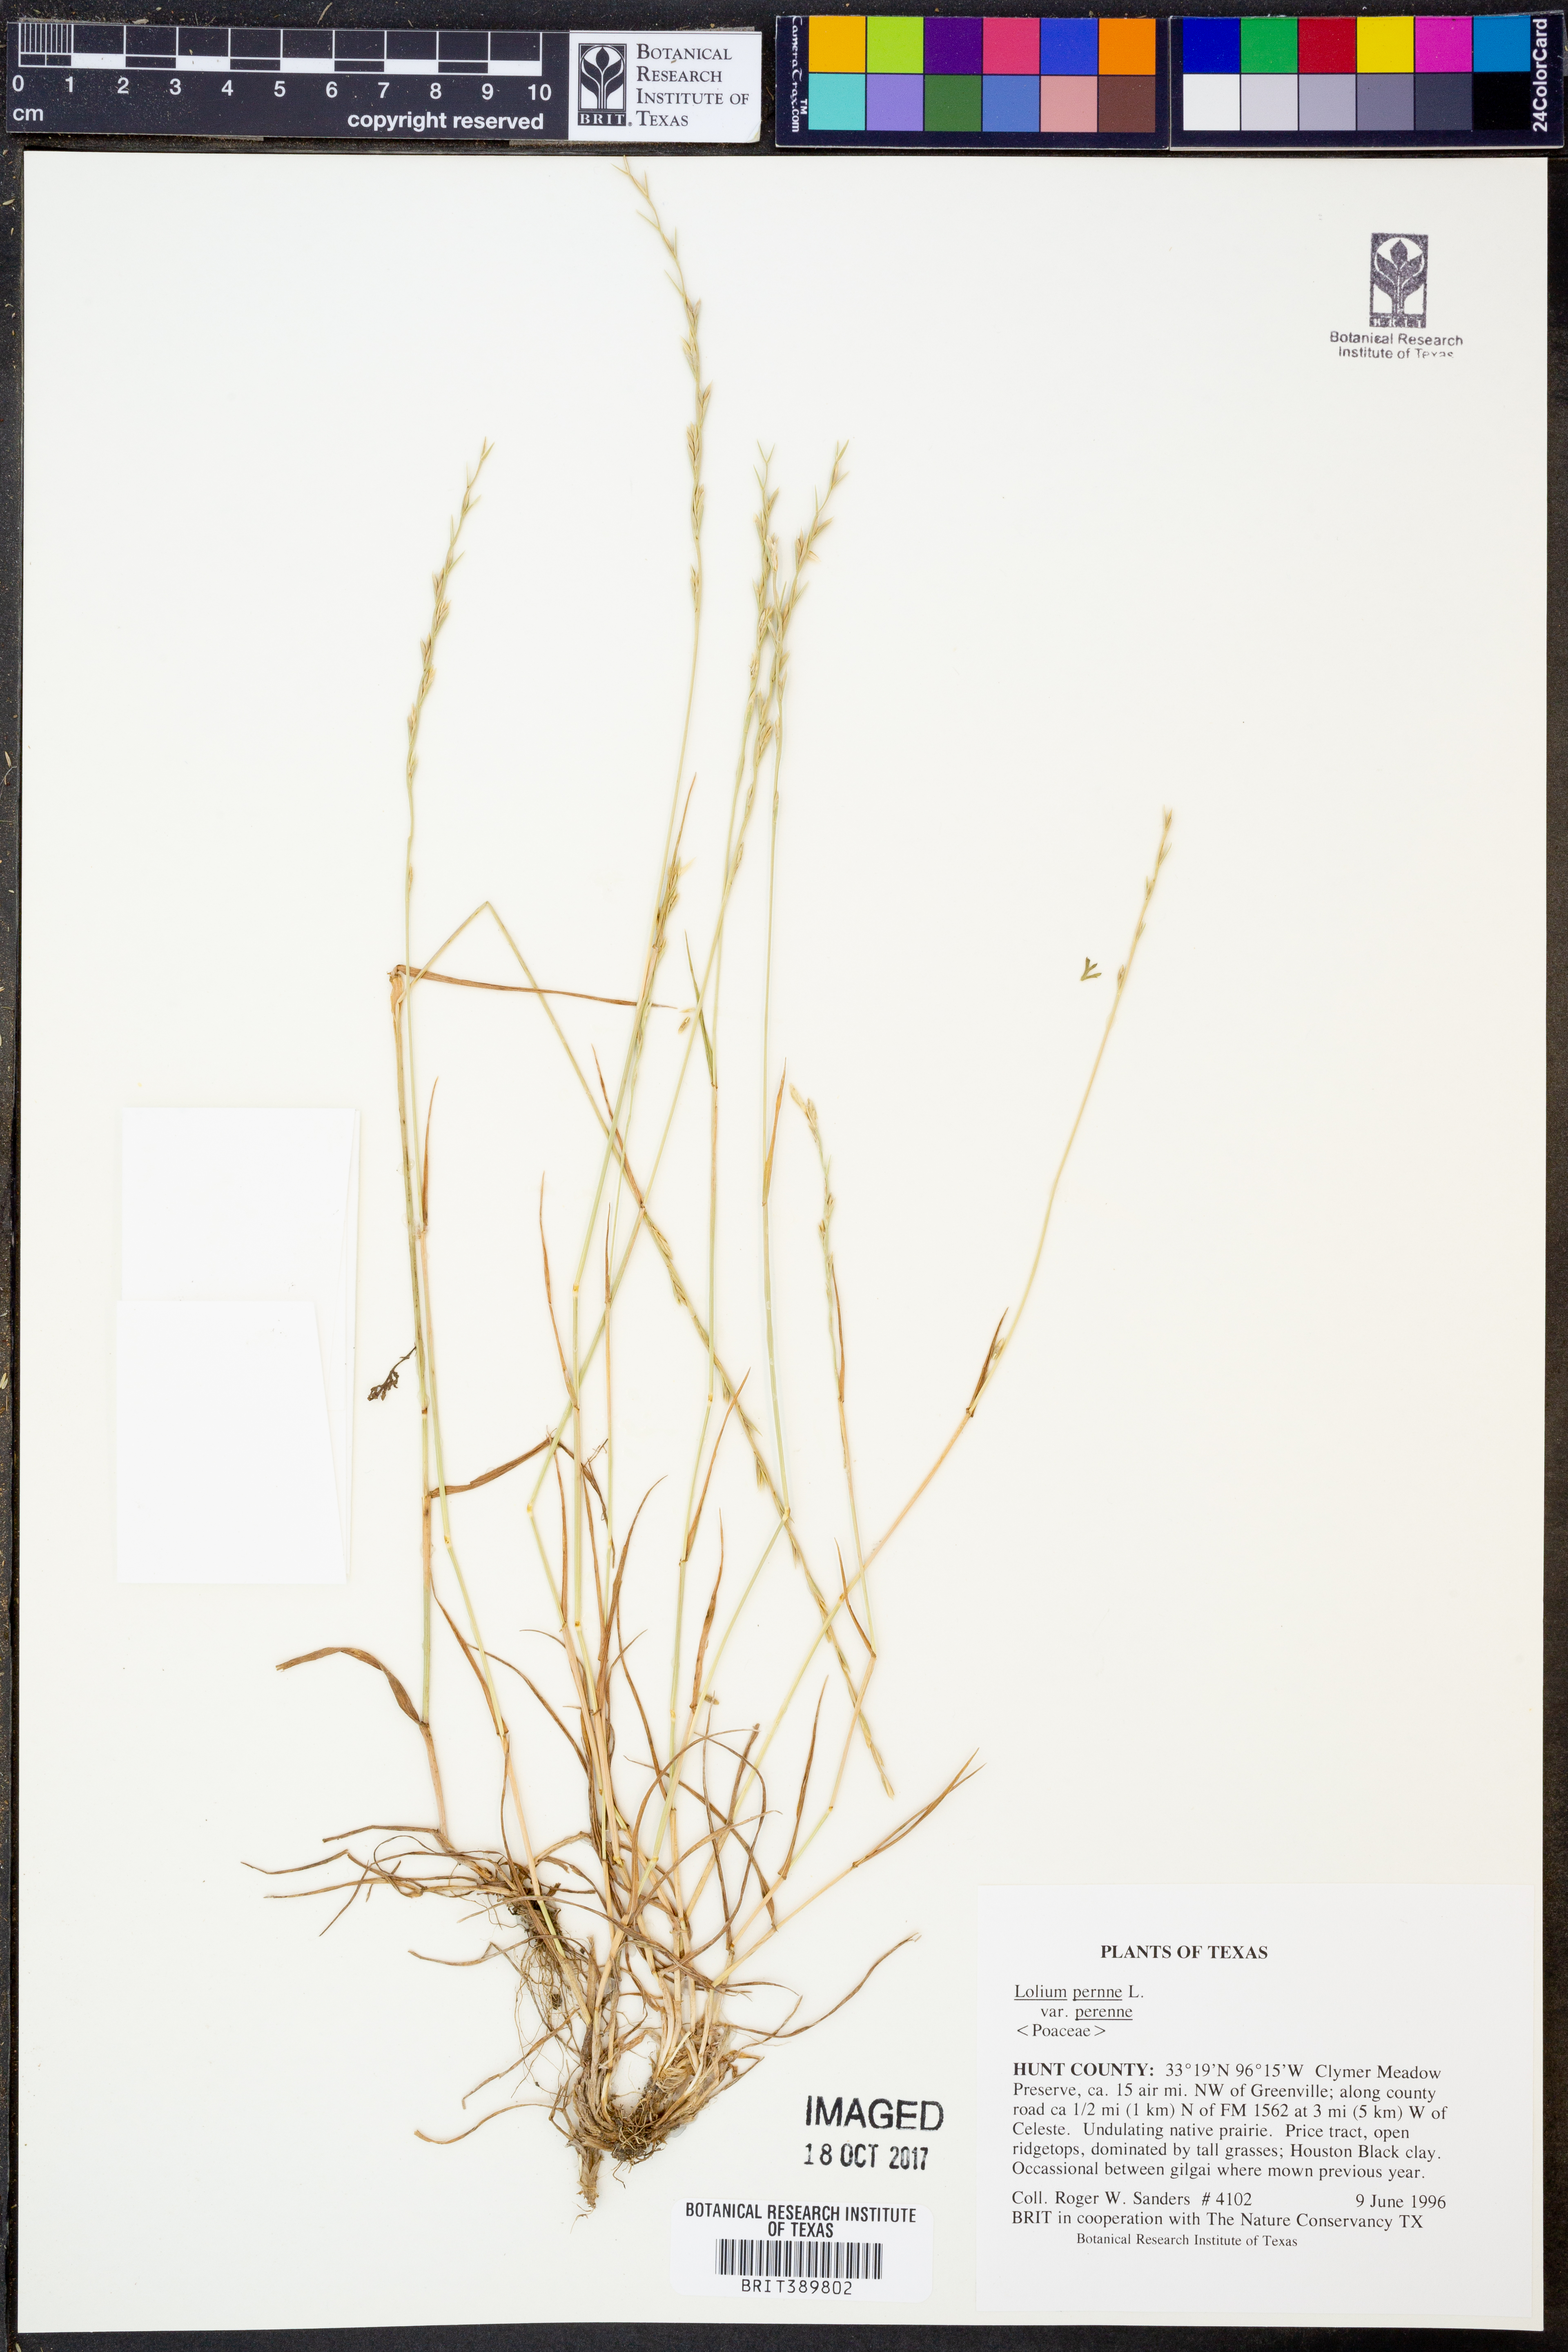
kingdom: Plantae
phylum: Tracheophyta
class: Liliopsida
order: Poales
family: Poaceae
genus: Lolium
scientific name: Lolium perenne
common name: Perennial ryegrass
